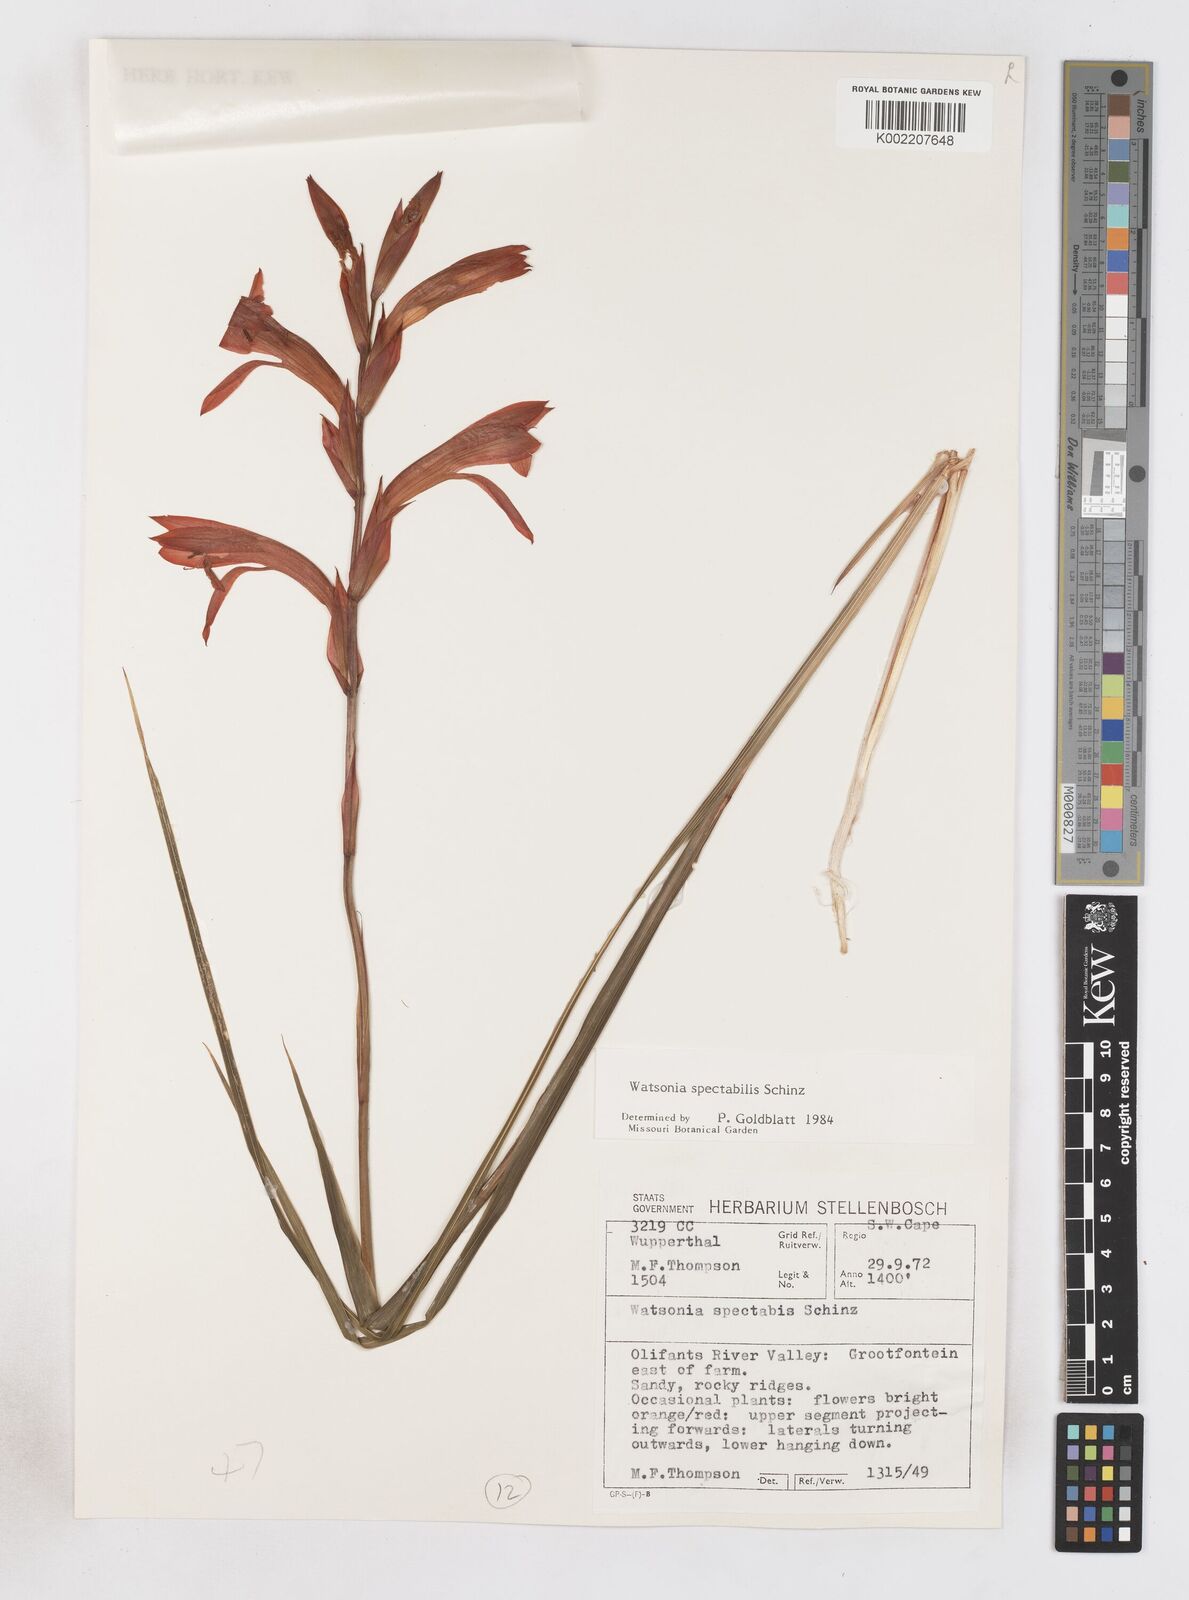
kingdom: Plantae
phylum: Tracheophyta
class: Liliopsida
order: Asparagales
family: Iridaceae
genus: Watsonia
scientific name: Watsonia spectabilis
